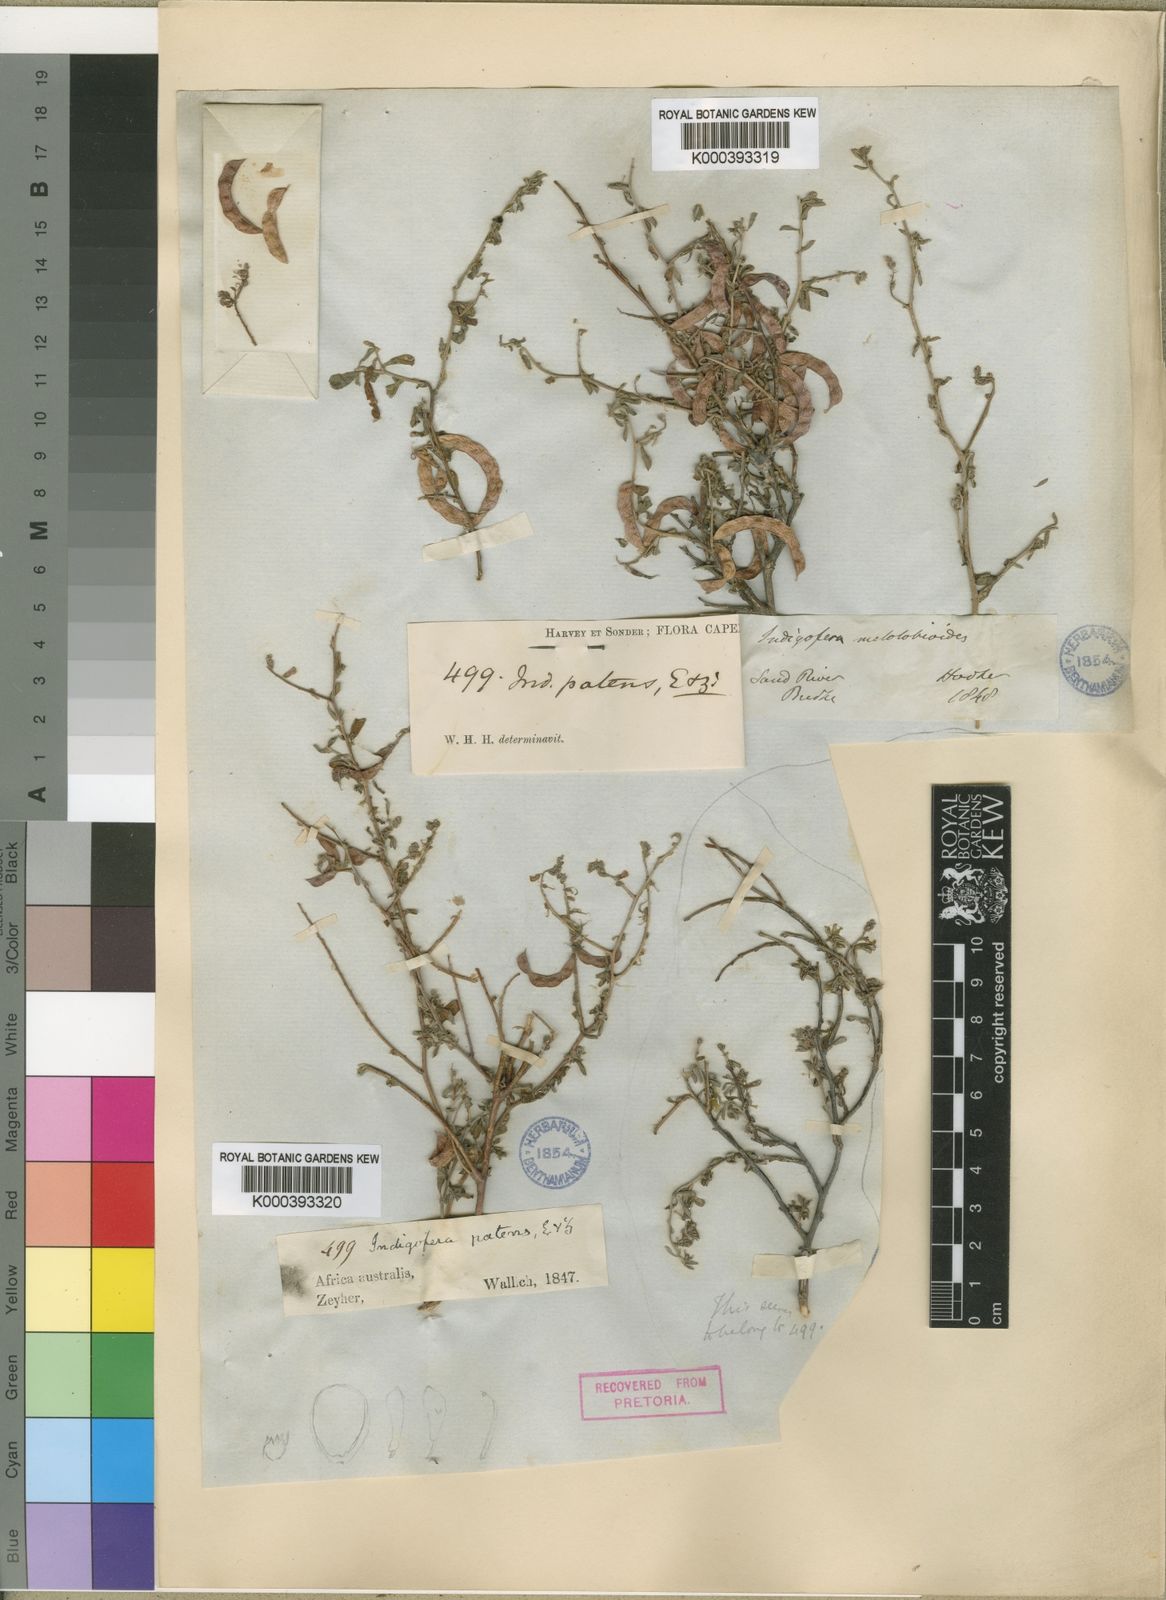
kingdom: Plantae
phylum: Tracheophyta
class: Magnoliopsida
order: Fabales
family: Fabaceae
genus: Indigofera
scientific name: Indigofera sessilifolia
